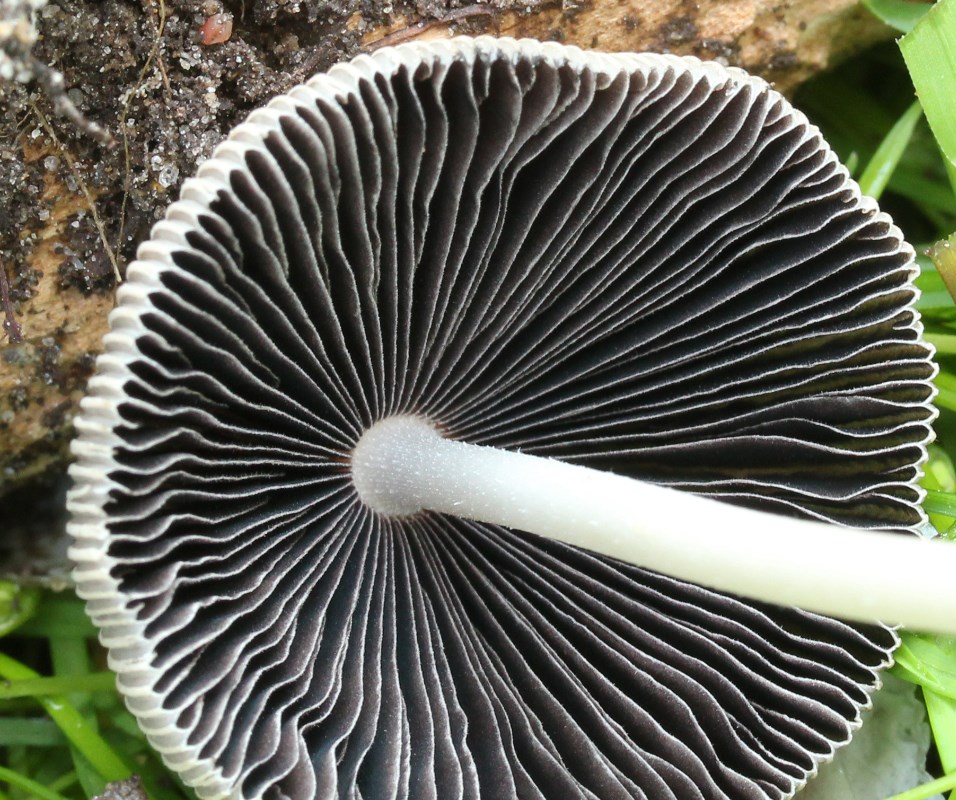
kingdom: Fungi
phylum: Basidiomycota
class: Agaricomycetes
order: Agaricales
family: Psathyrellaceae
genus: Parasola
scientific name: Parasola auricoma
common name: hansens hjulhat
